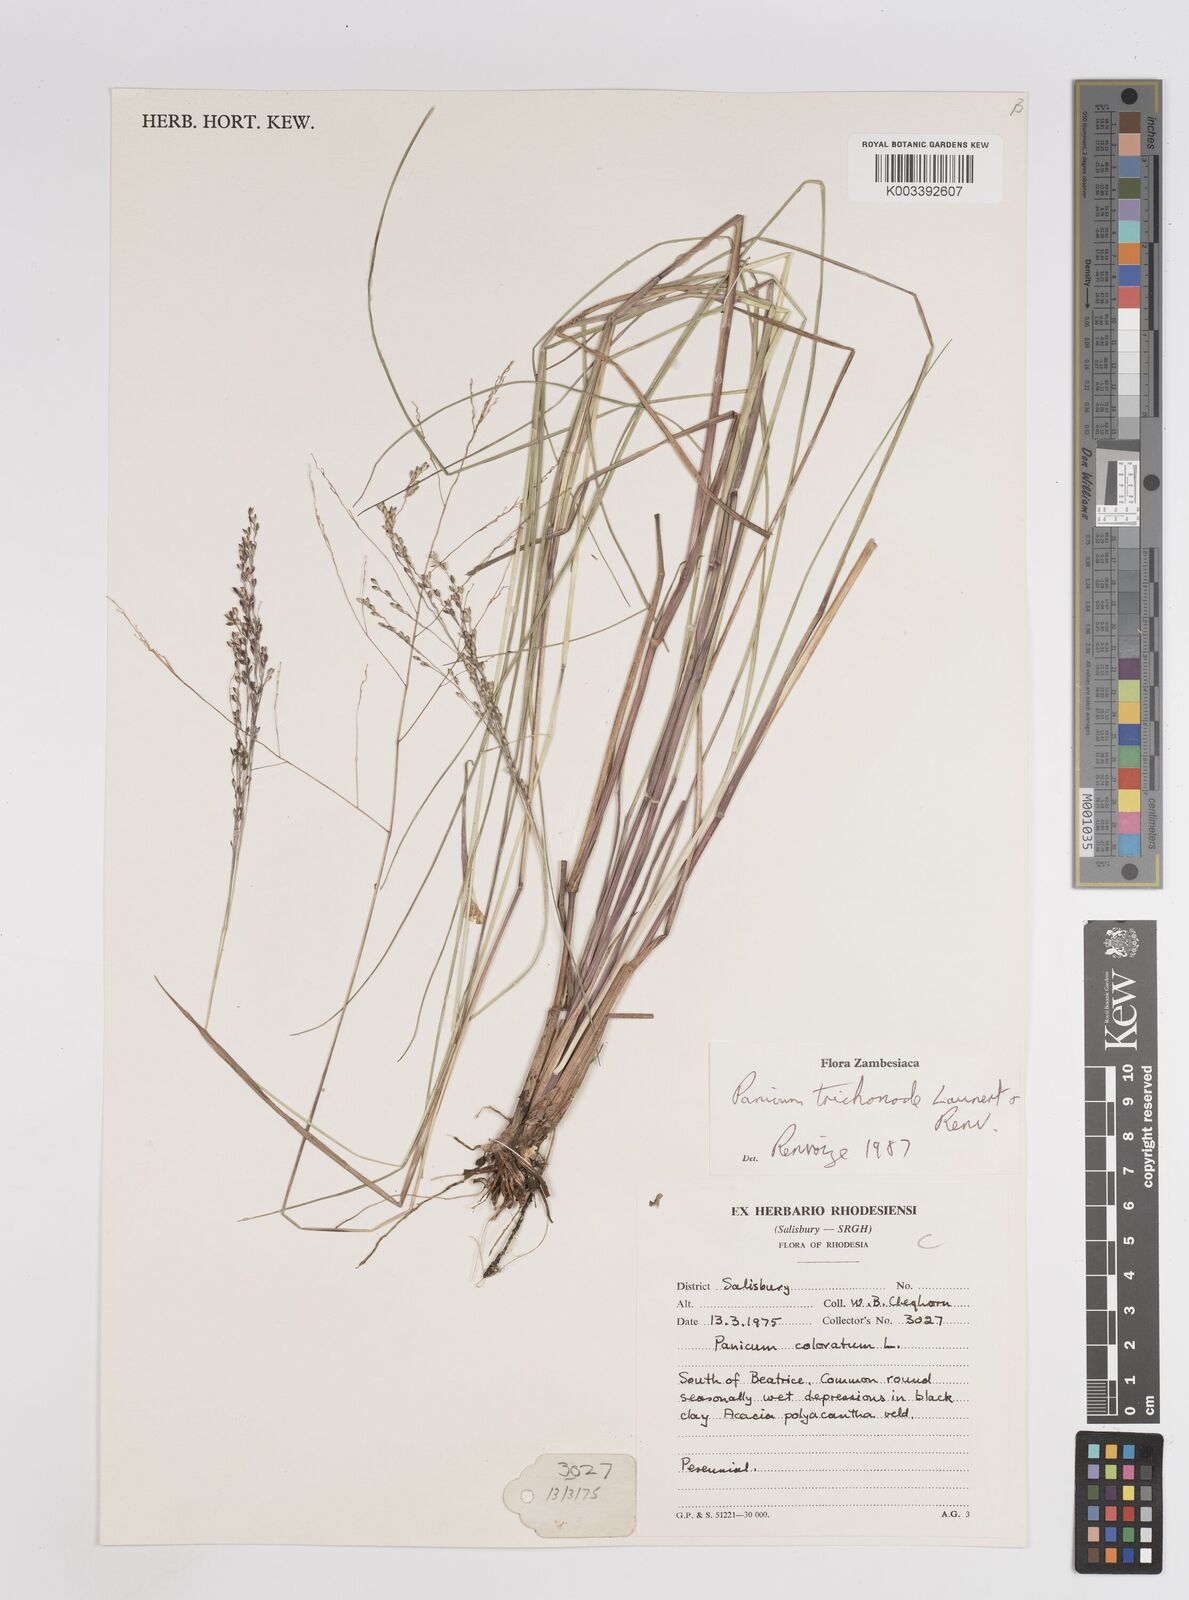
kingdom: Plantae
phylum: Tracheophyta
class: Liliopsida
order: Poales
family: Poaceae
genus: Panicum
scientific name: Panicum trichonode
